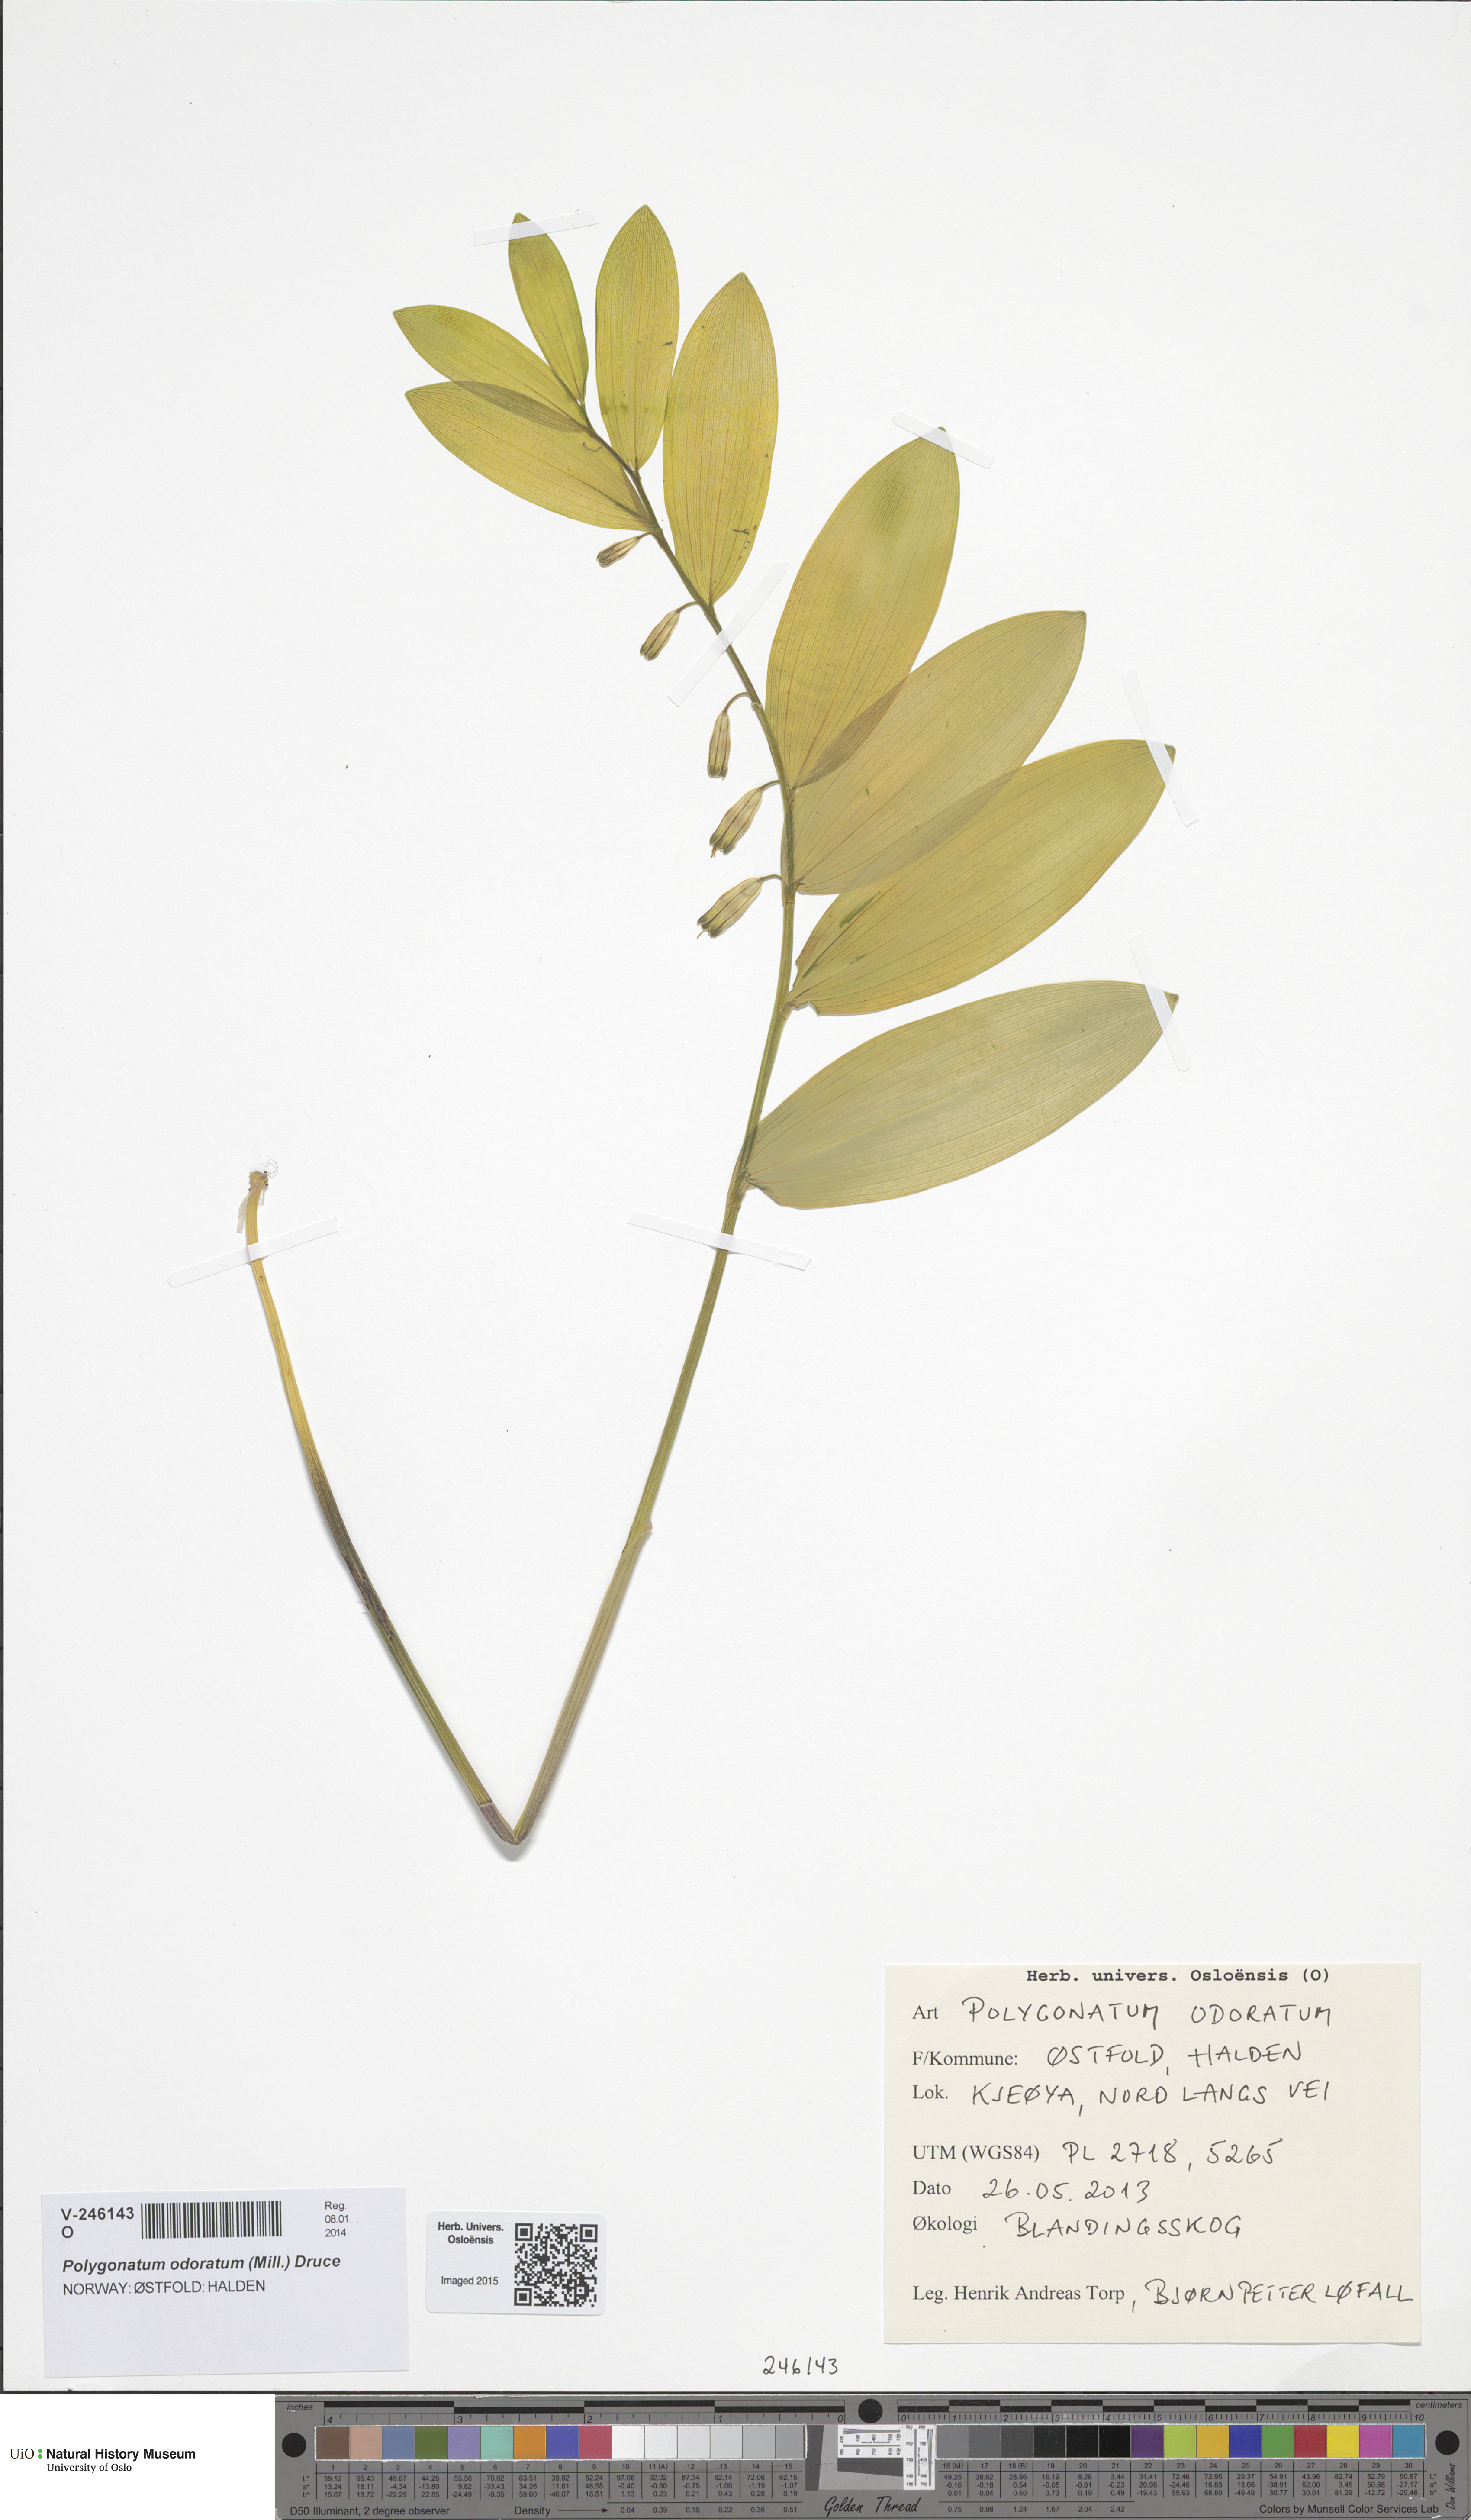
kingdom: Plantae
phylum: Tracheophyta
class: Liliopsida
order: Asparagales
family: Asparagaceae
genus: Polygonatum
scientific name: Polygonatum odoratum
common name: Angular solomon's-seal
